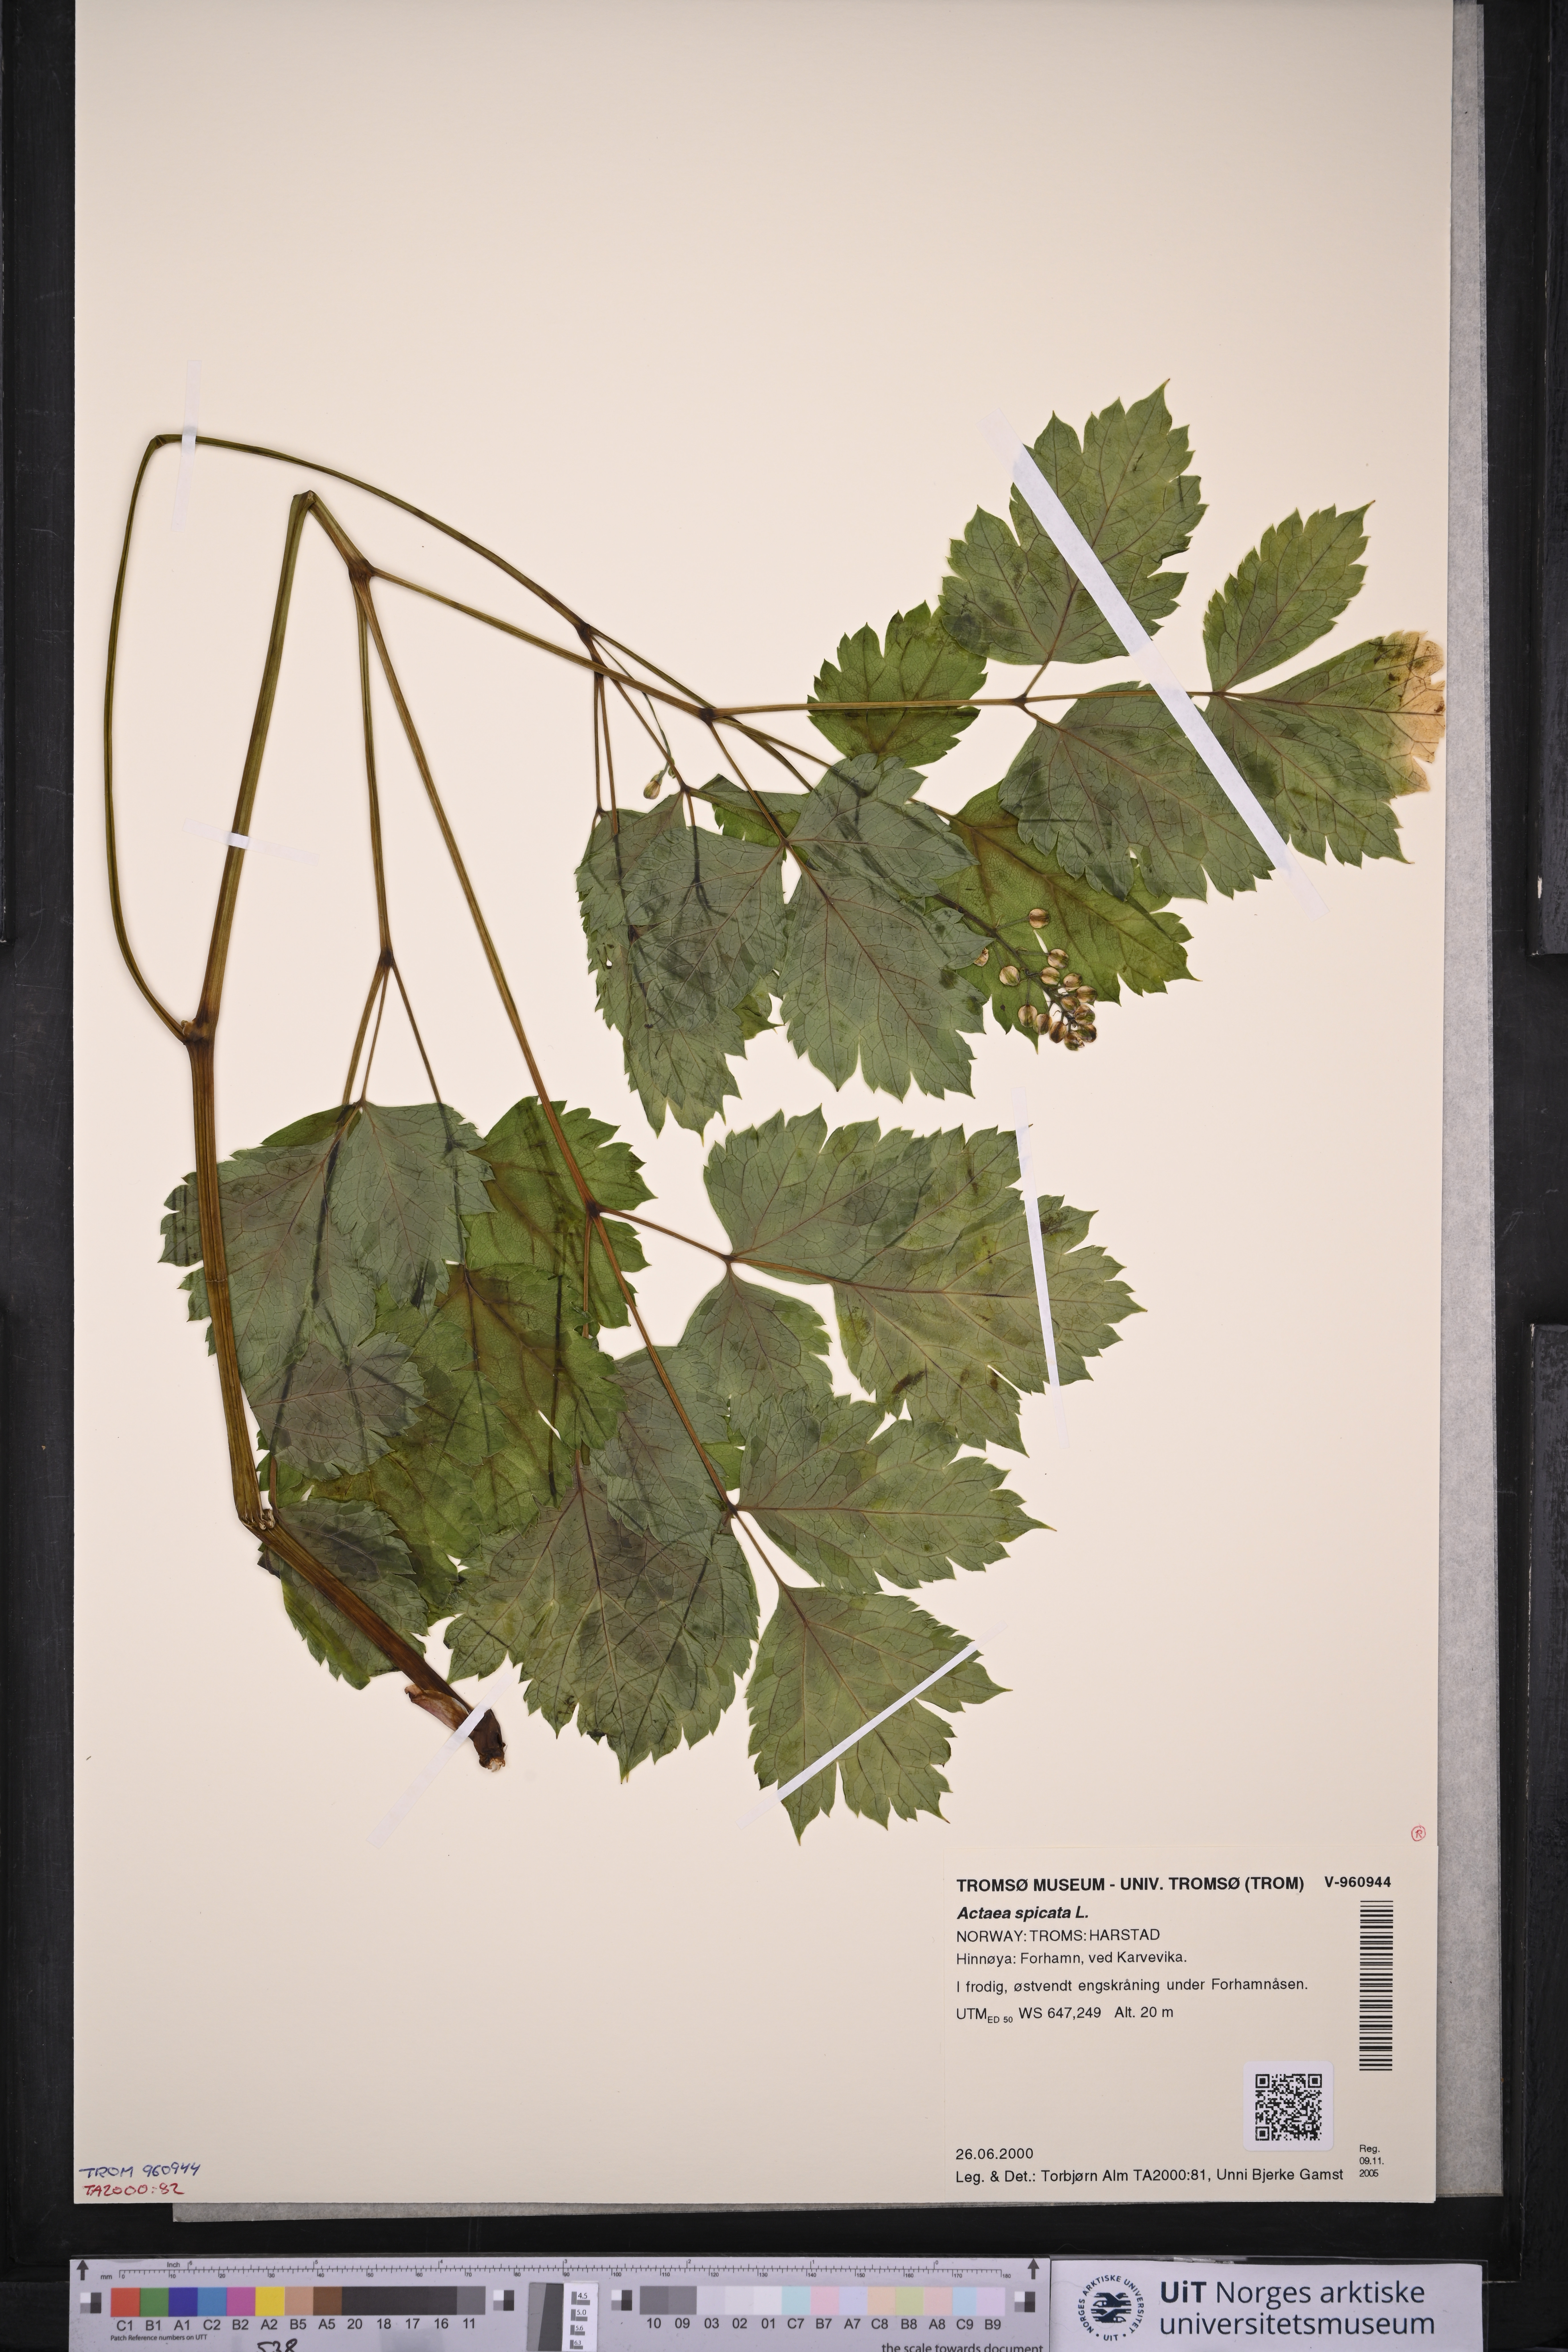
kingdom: Plantae
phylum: Tracheophyta
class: Magnoliopsida
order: Ranunculales
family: Ranunculaceae
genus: Actaea
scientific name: Actaea spicata
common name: Baneberry
